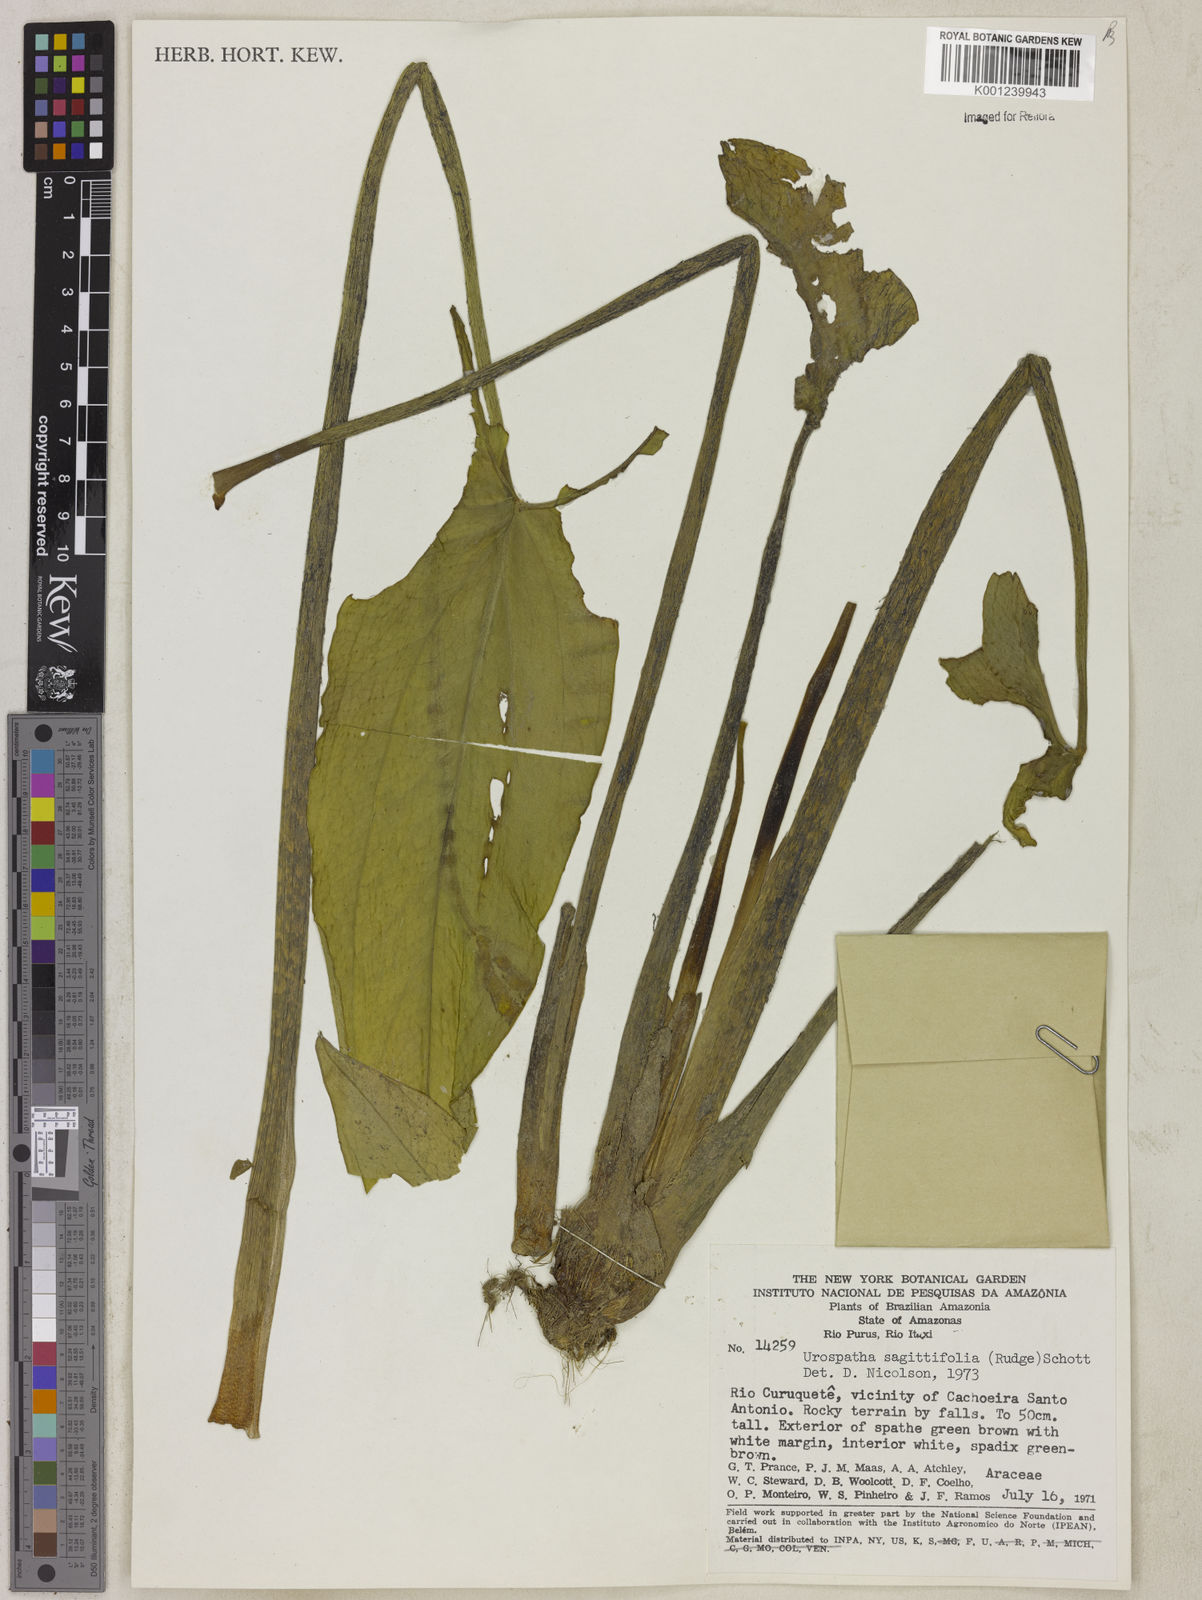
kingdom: Plantae
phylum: Tracheophyta
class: Liliopsida
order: Alismatales
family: Araceae
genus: Urospatha
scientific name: Urospatha sagittifolia
